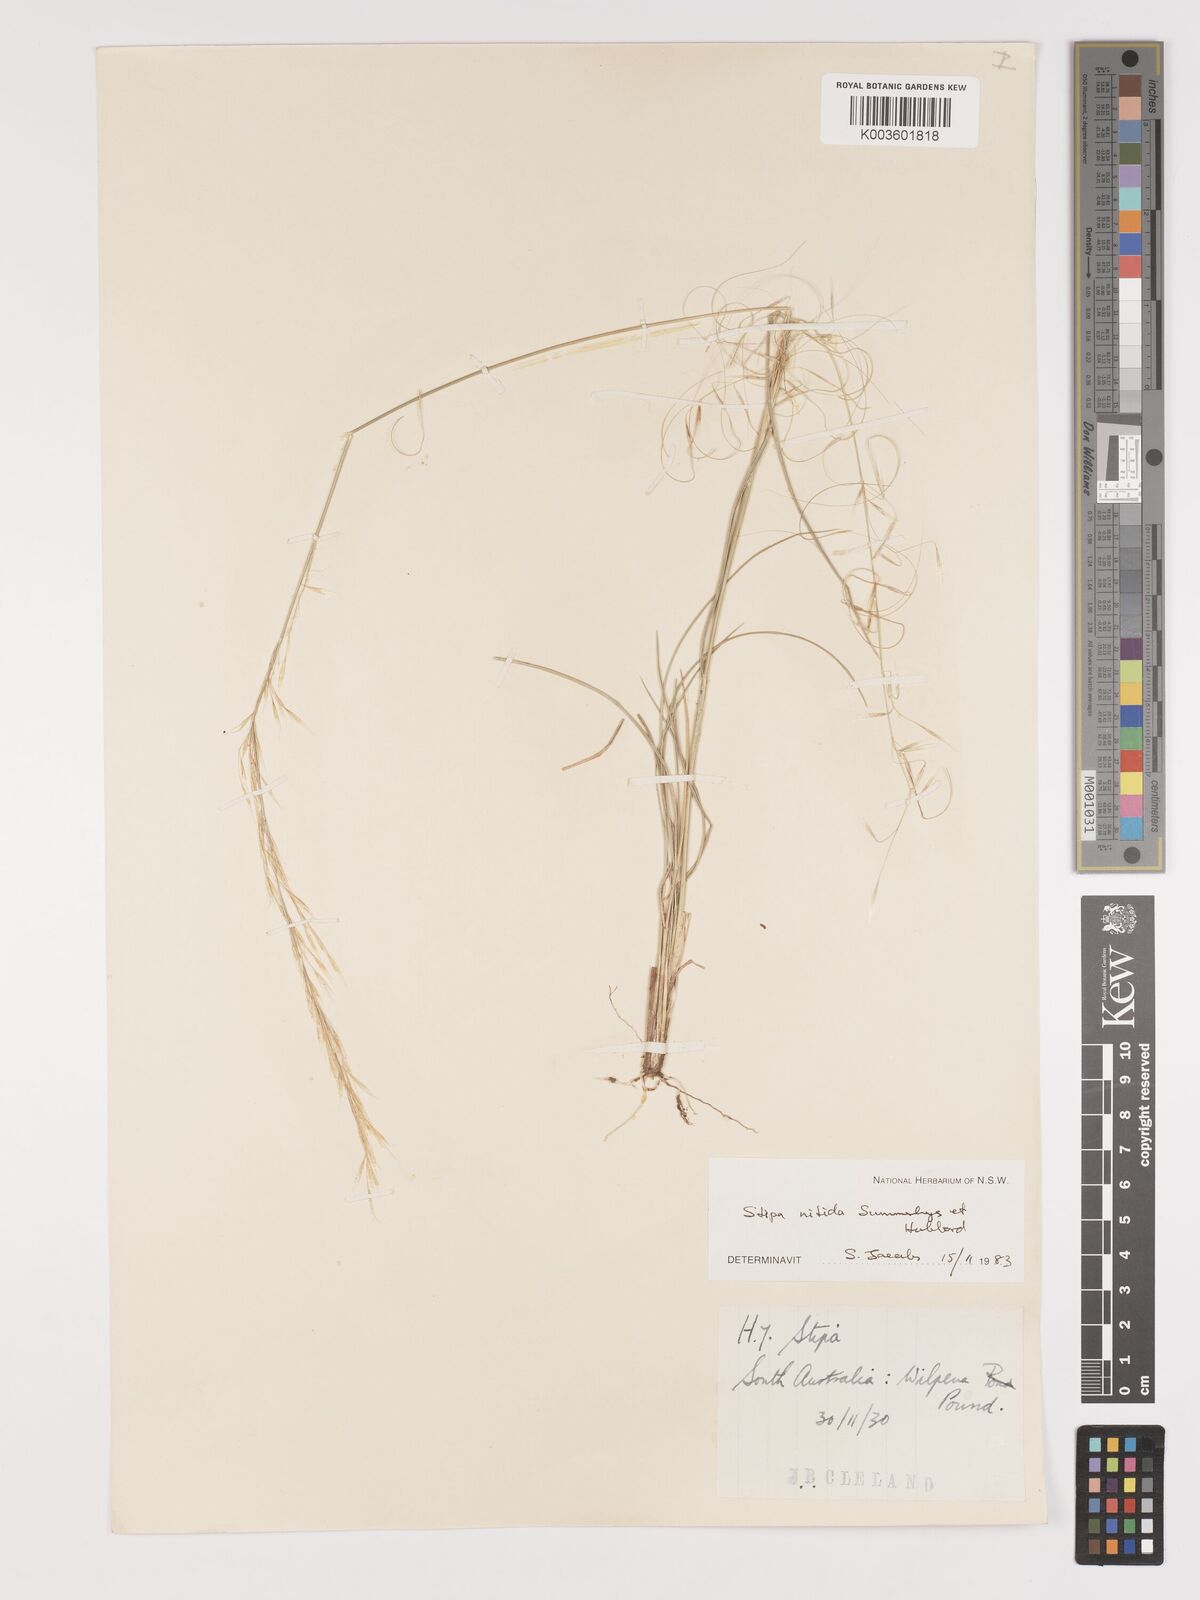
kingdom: Plantae
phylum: Tracheophyta
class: Liliopsida
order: Poales
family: Poaceae
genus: Austrostipa
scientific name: Austrostipa nitida
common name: Balcarra grass
